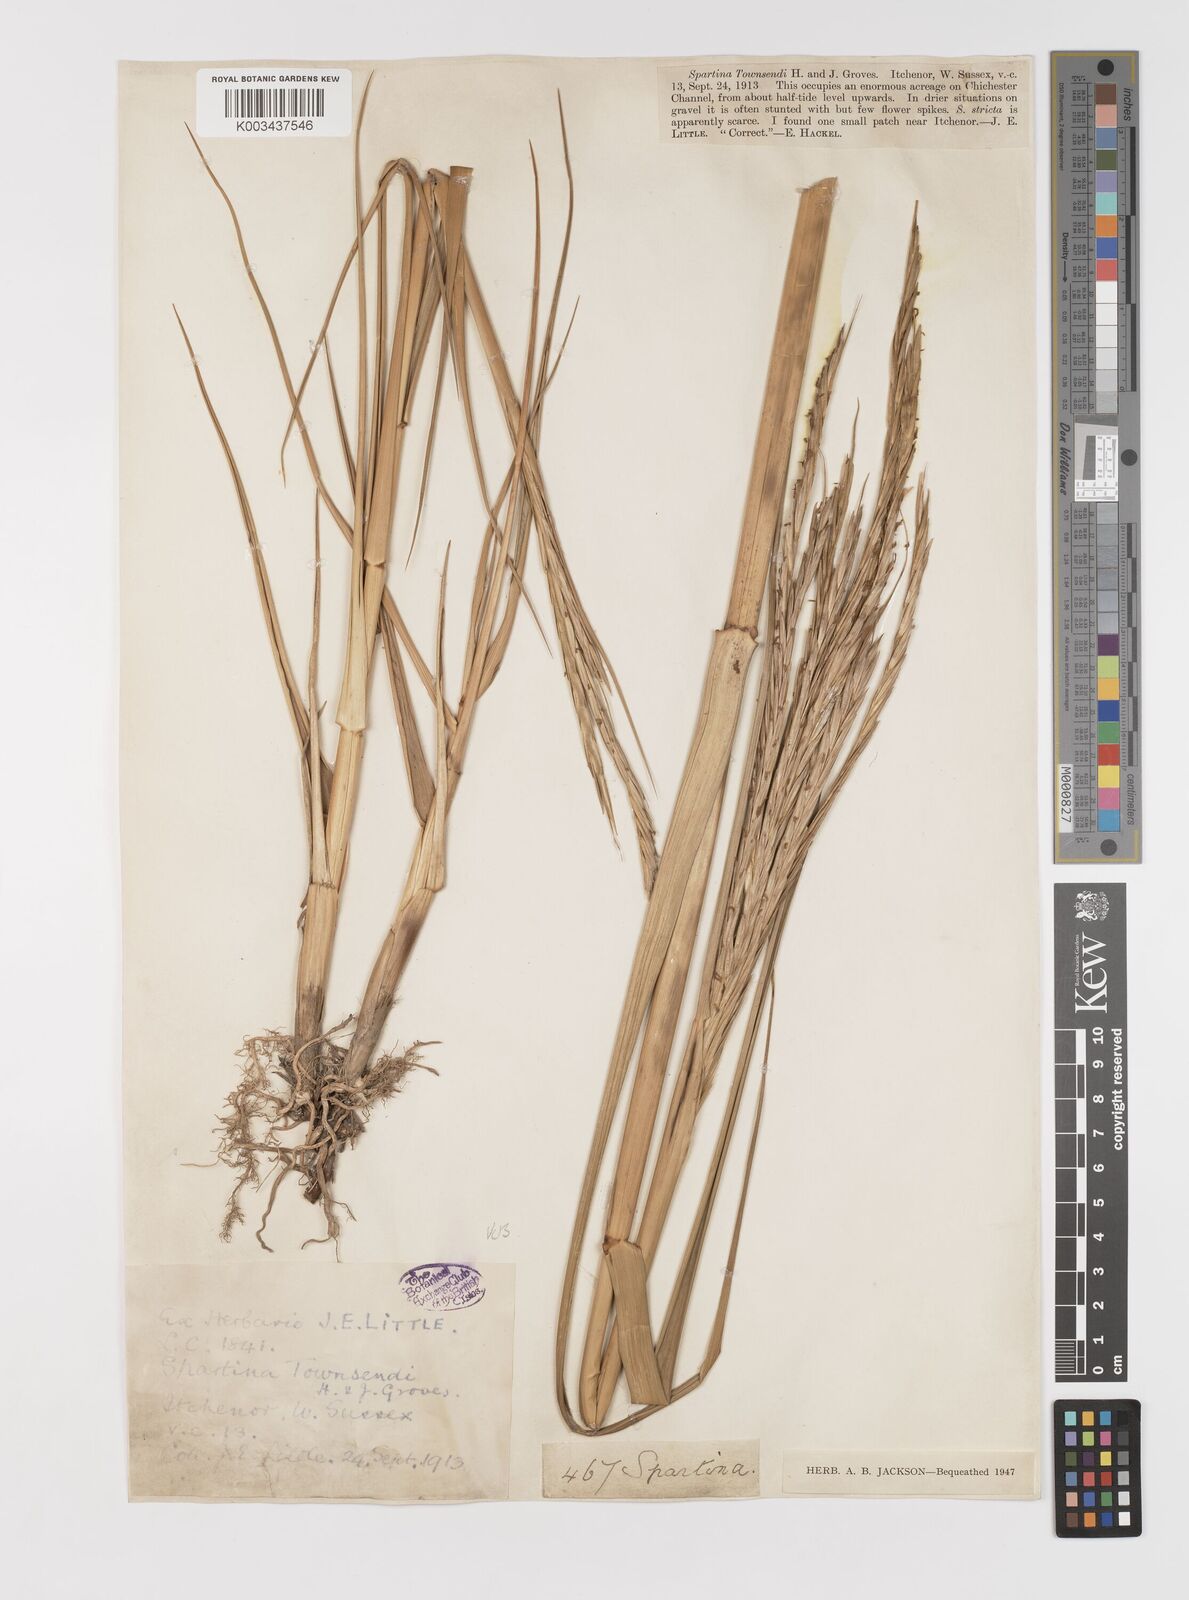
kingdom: Plantae
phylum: Tracheophyta
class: Liliopsida
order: Poales
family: Poaceae
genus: Sporobolus
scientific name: Sporobolus anglicus
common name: English cordgrass
